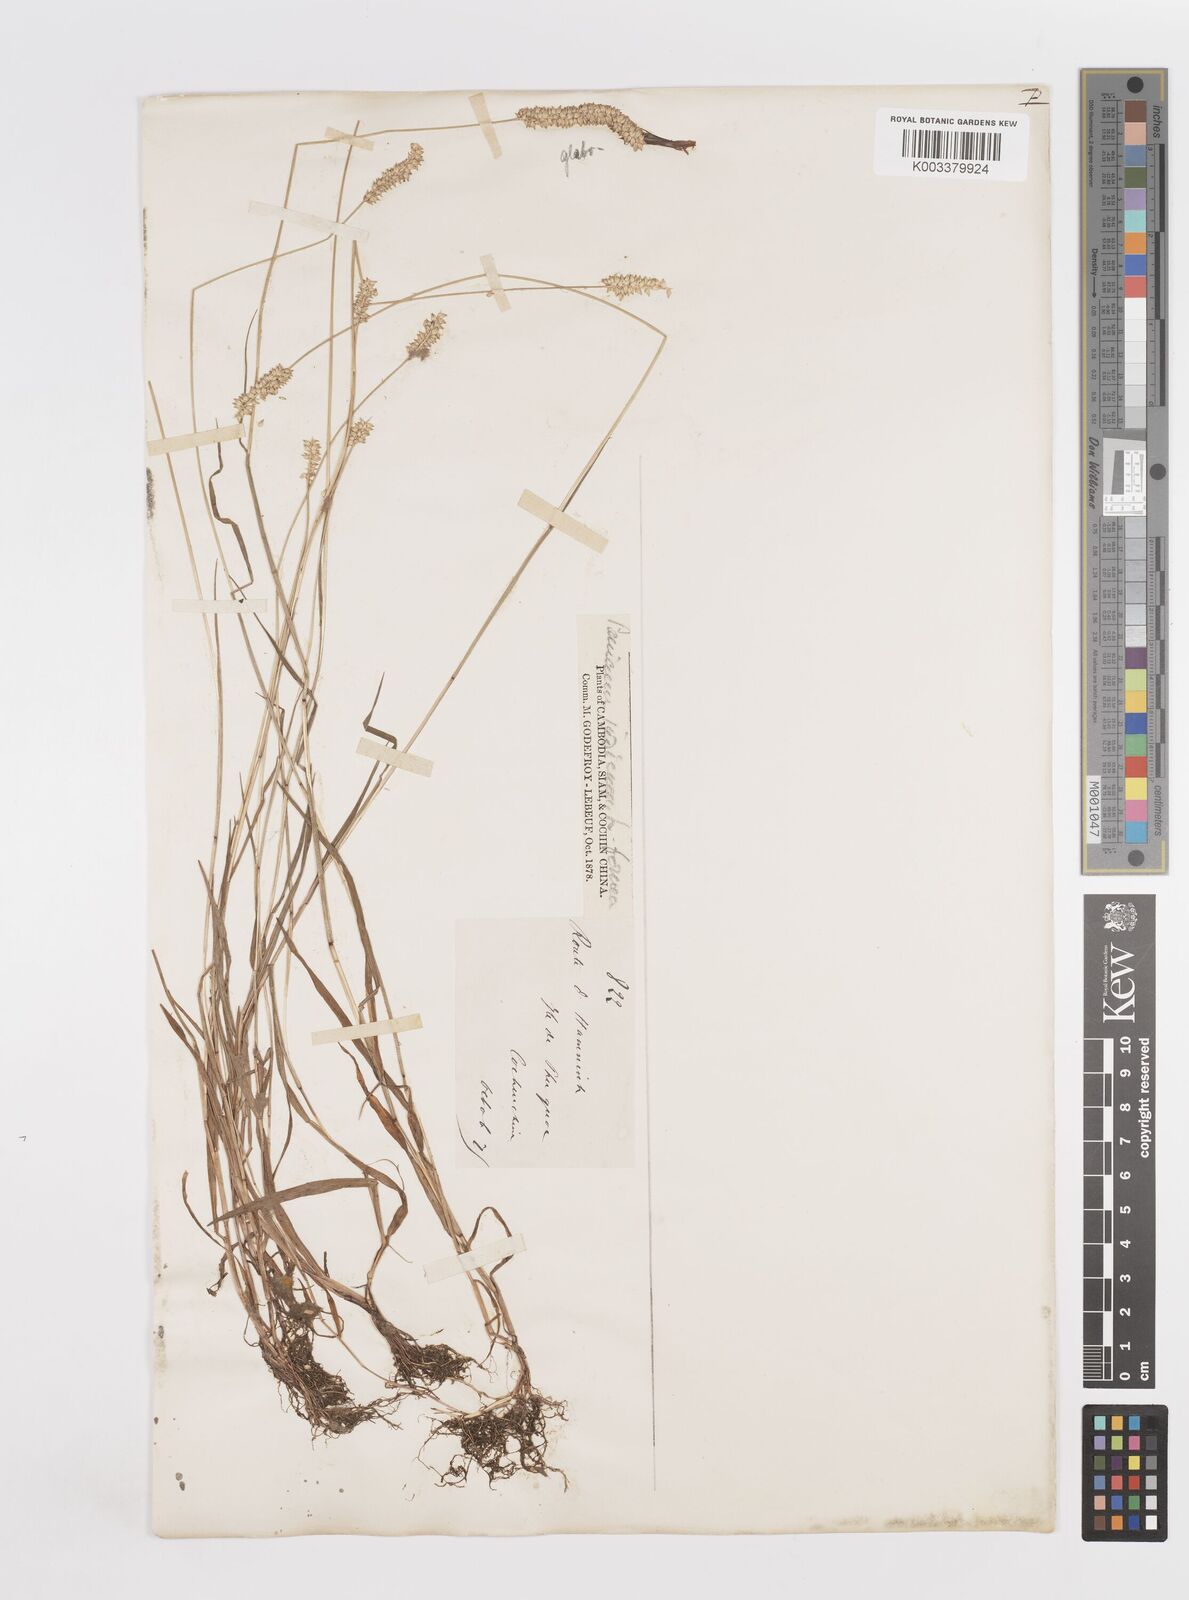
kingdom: Plantae
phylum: Tracheophyta
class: Liliopsida
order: Poales
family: Poaceae
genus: Sacciolepis
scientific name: Sacciolepis indica
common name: Glenwoodgrass
